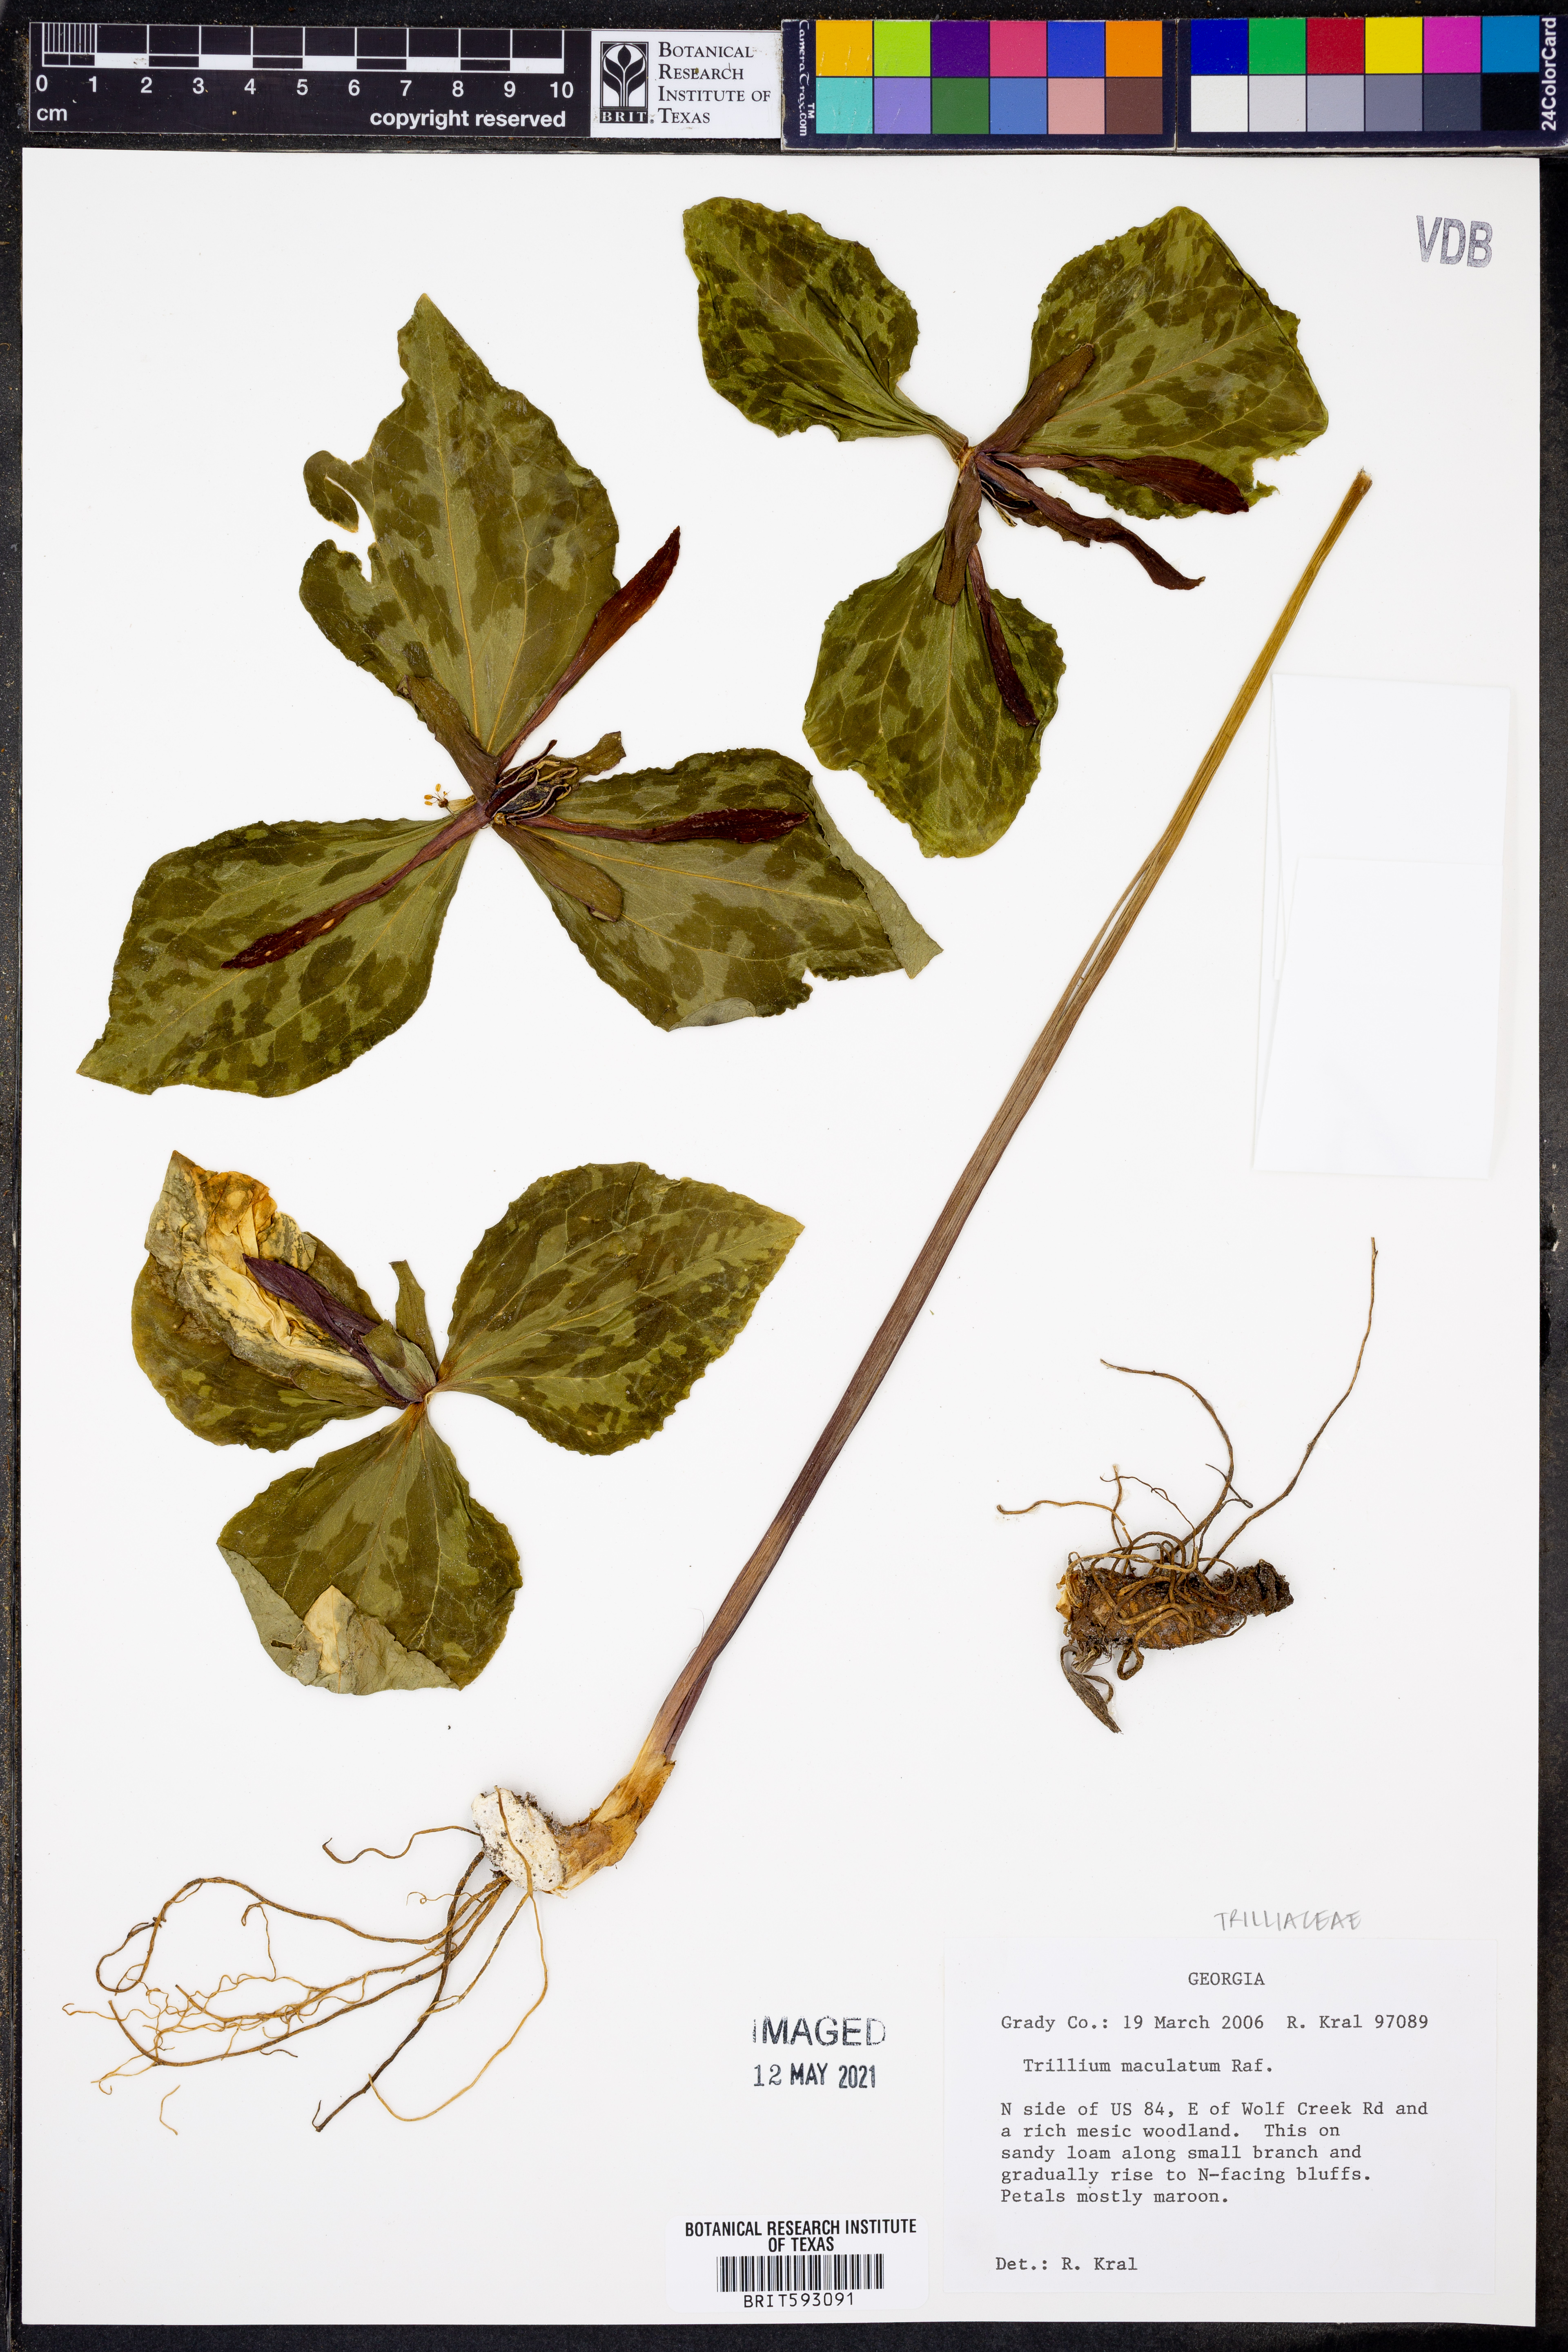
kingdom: Plantae
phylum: Tracheophyta
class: Liliopsida
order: Liliales
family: Melanthiaceae
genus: Trillium
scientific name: Trillium maculatum
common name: Mottled trillium
